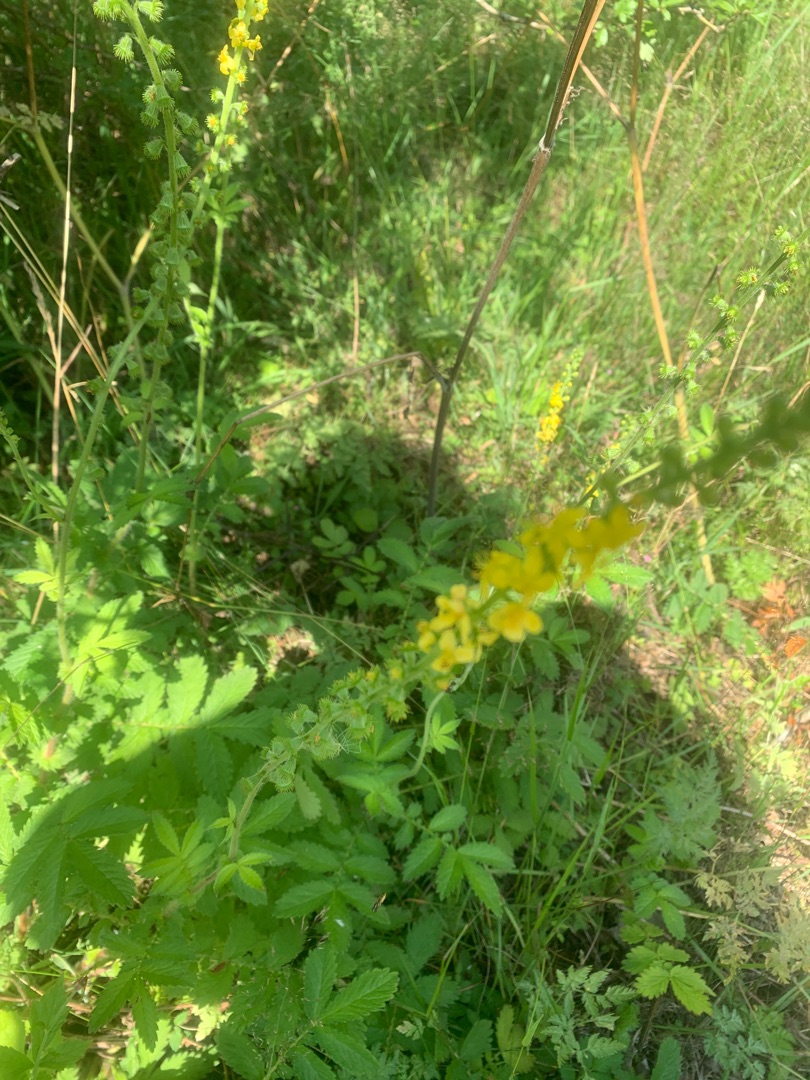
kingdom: Plantae
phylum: Tracheophyta
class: Magnoliopsida
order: Rosales
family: Rosaceae
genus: Agrimonia
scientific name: Agrimonia eupatoria
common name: Almindelig agermåne
